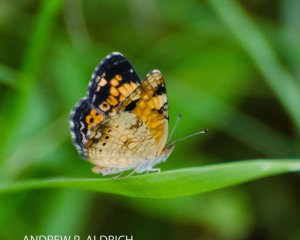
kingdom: Animalia
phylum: Arthropoda
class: Insecta
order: Lepidoptera
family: Nymphalidae
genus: Phyciodes
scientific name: Phyciodes tharos
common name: Pearl Crescent
